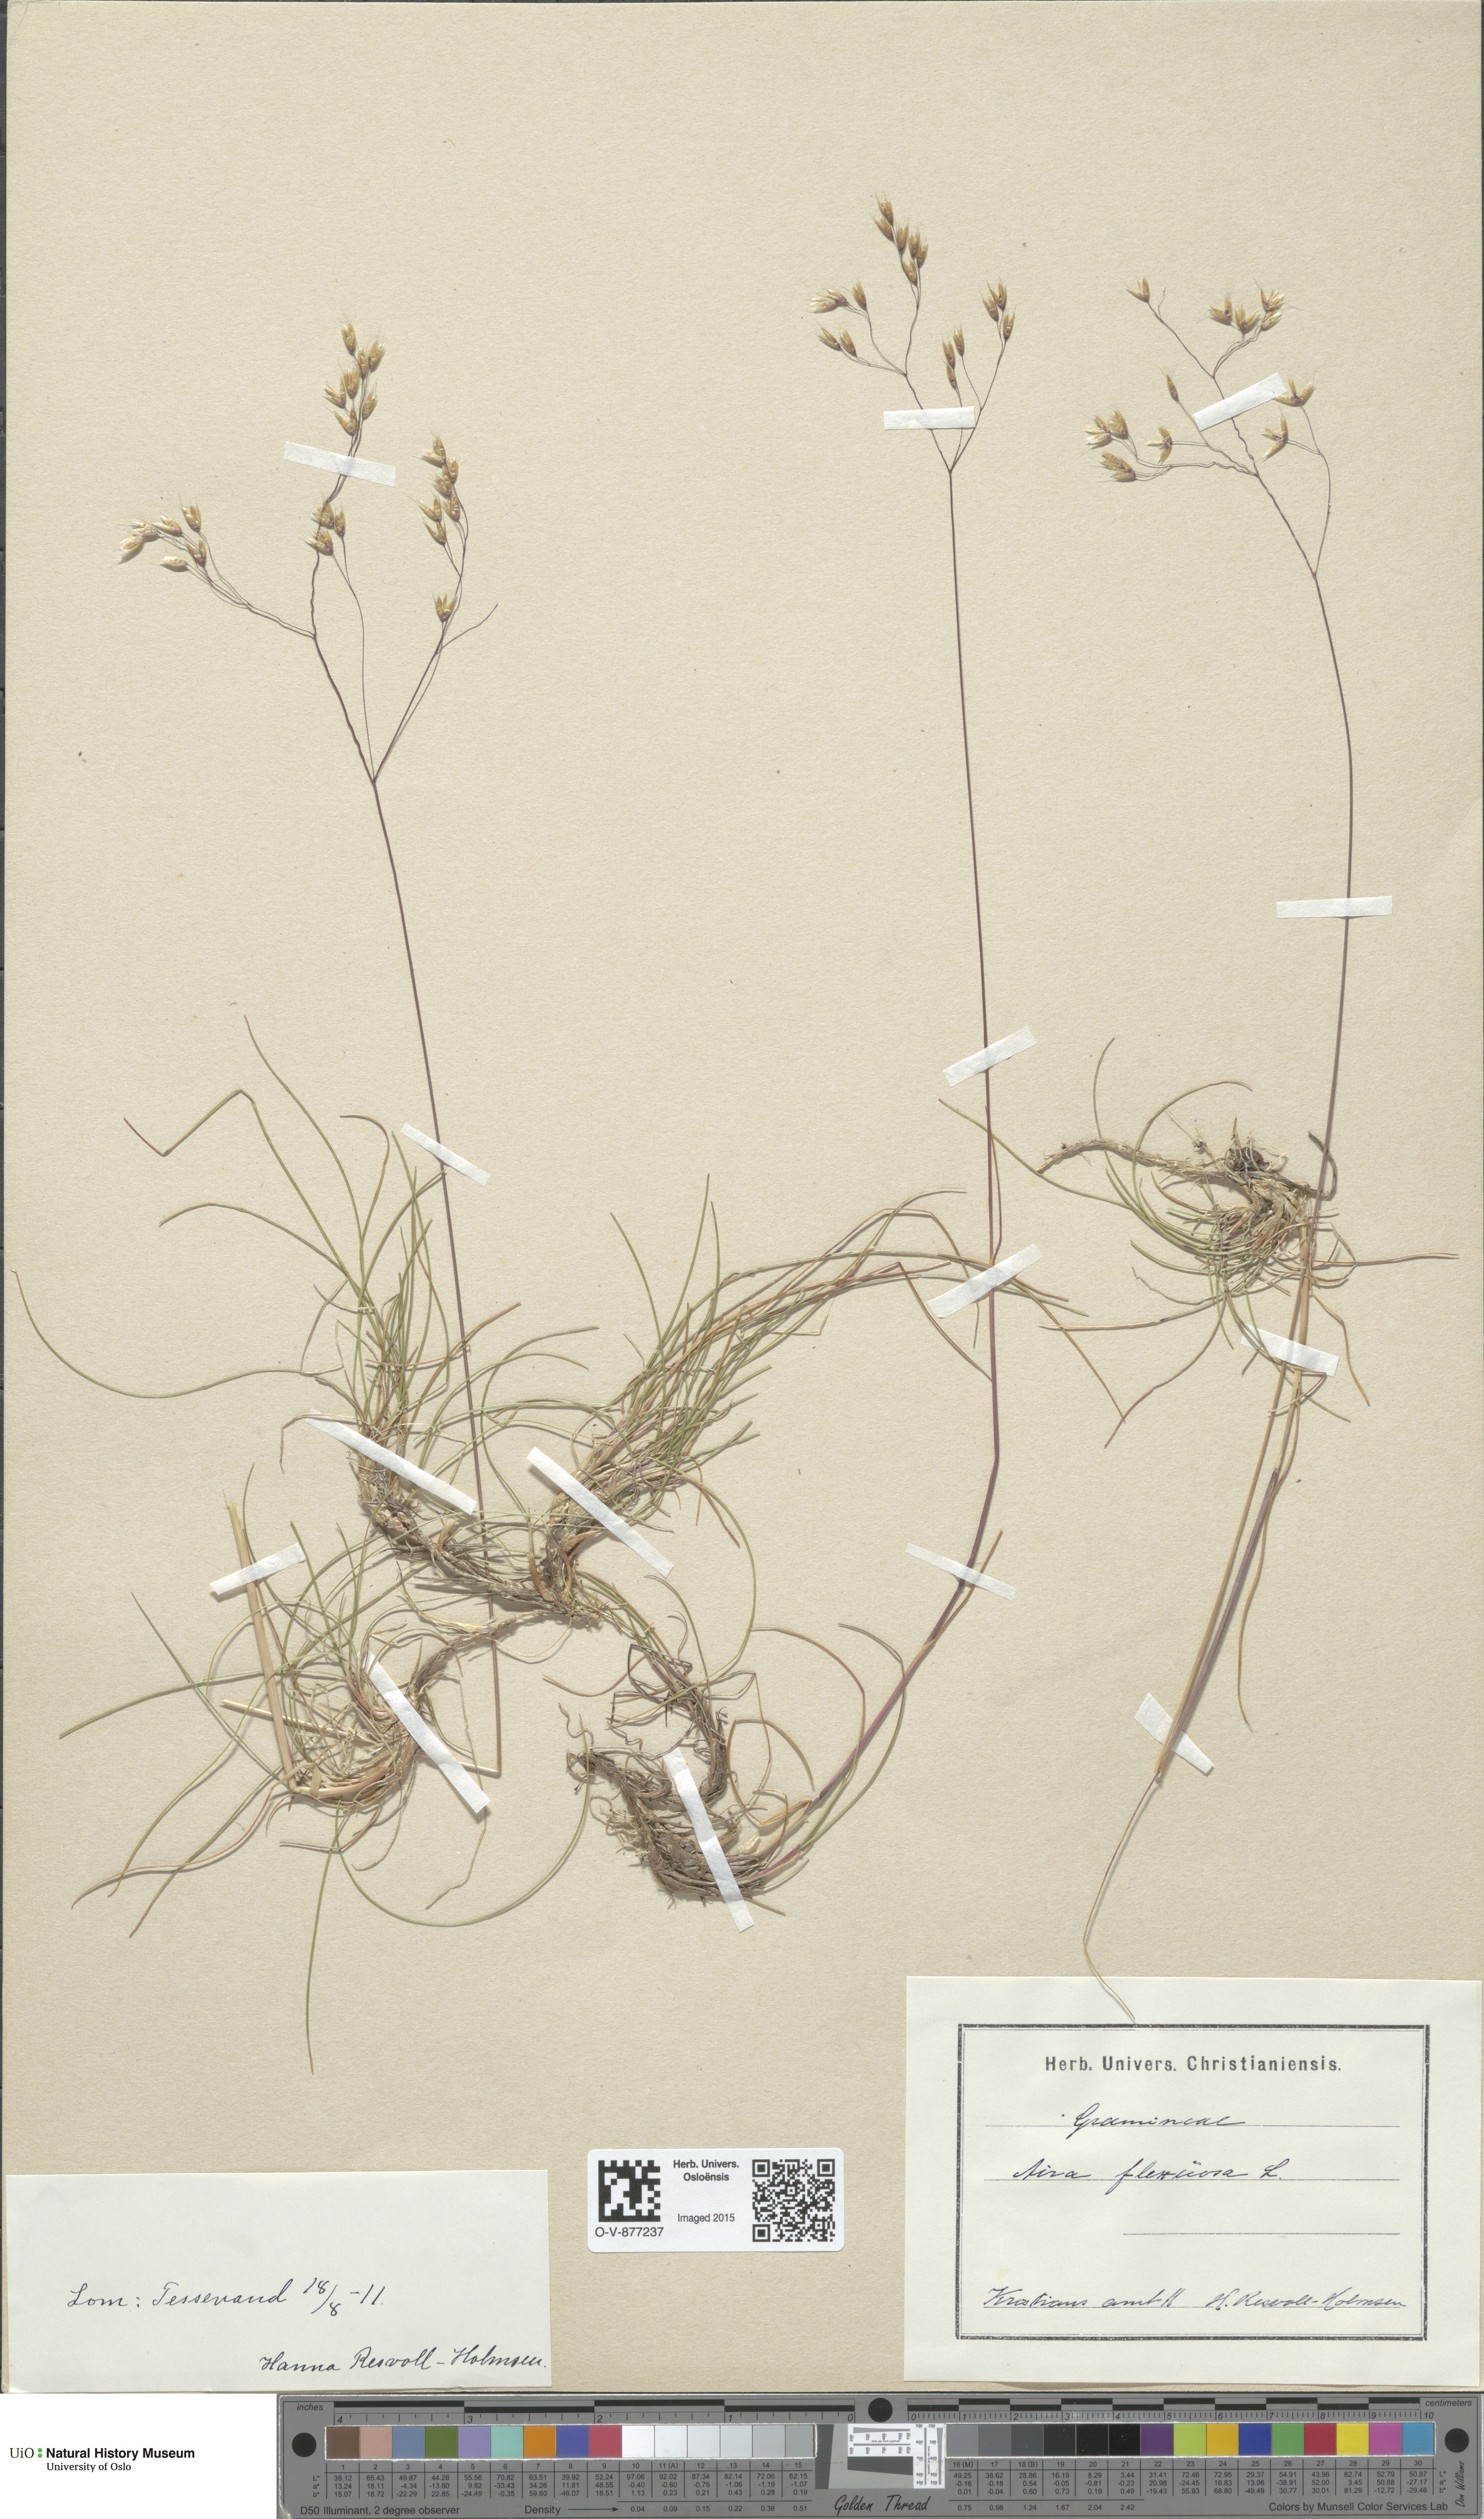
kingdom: Plantae
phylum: Tracheophyta
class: Liliopsida
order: Poales
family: Poaceae
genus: Avenella
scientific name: Avenella flexuosa
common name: Wavy hairgrass
